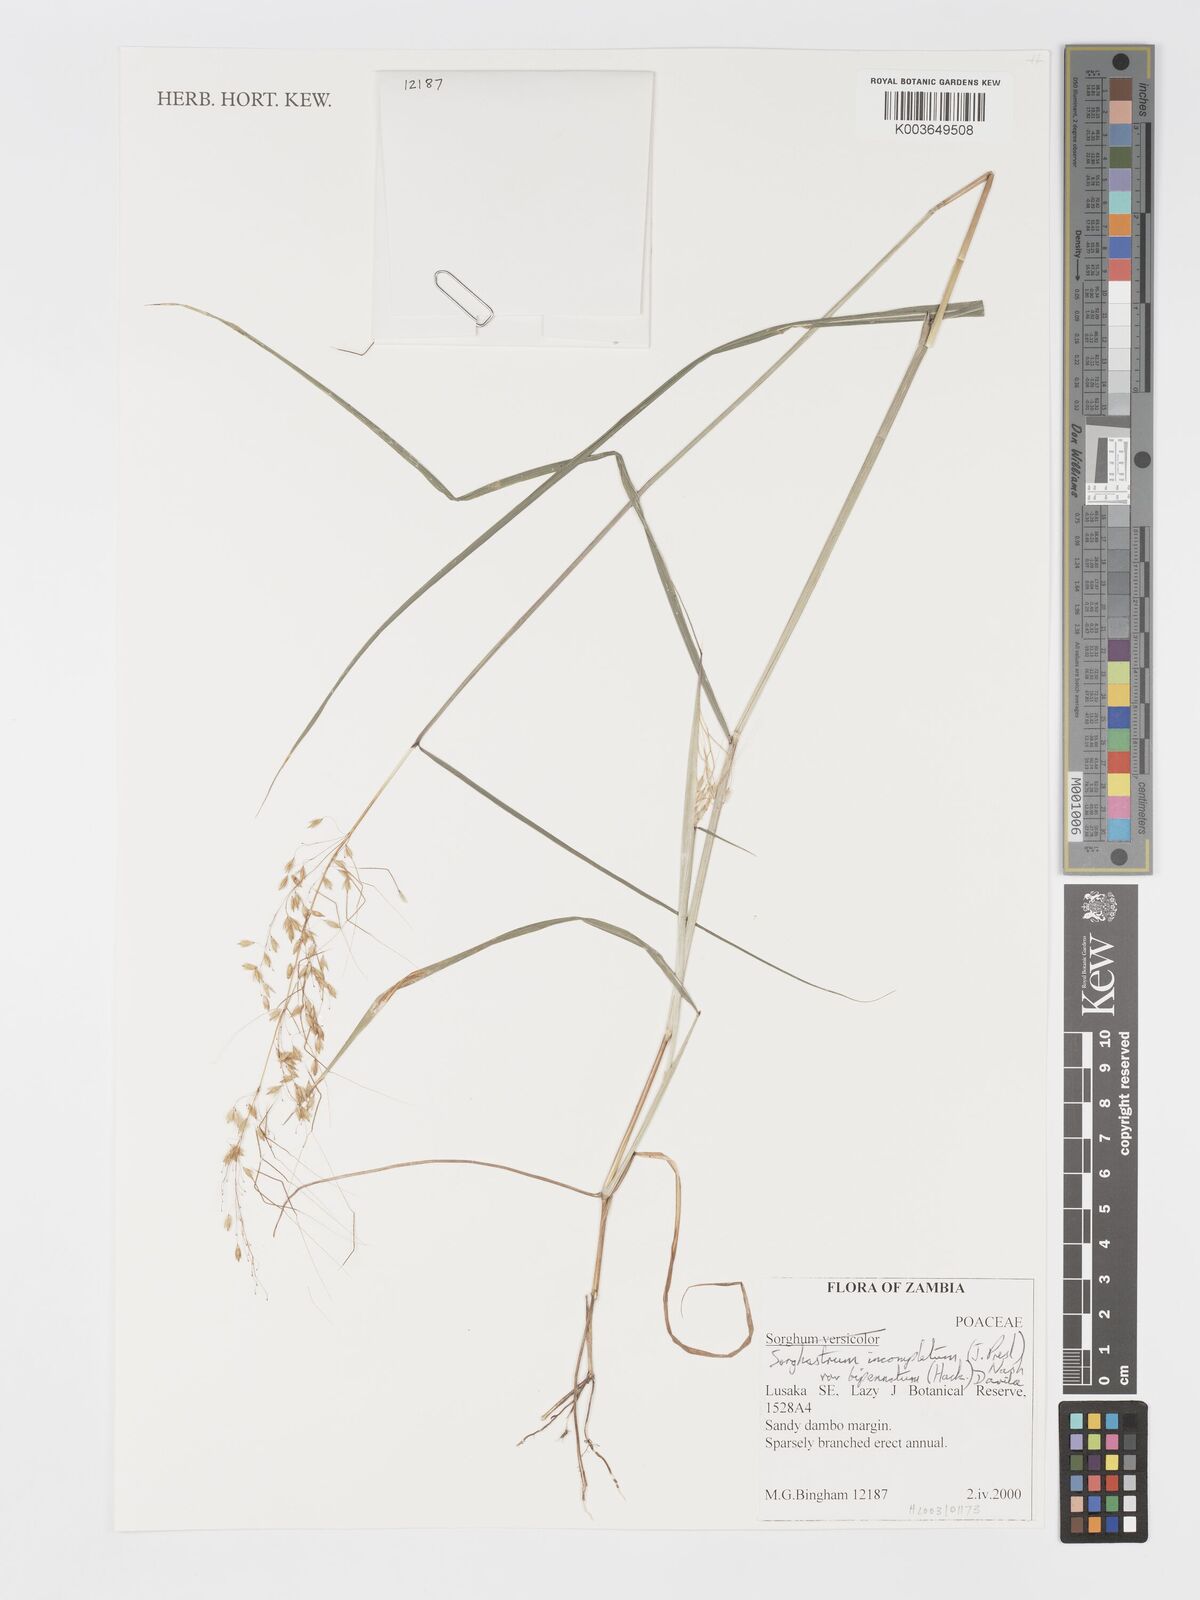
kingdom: Plantae
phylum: Tracheophyta
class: Liliopsida
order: Poales
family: Poaceae
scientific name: Poaceae
